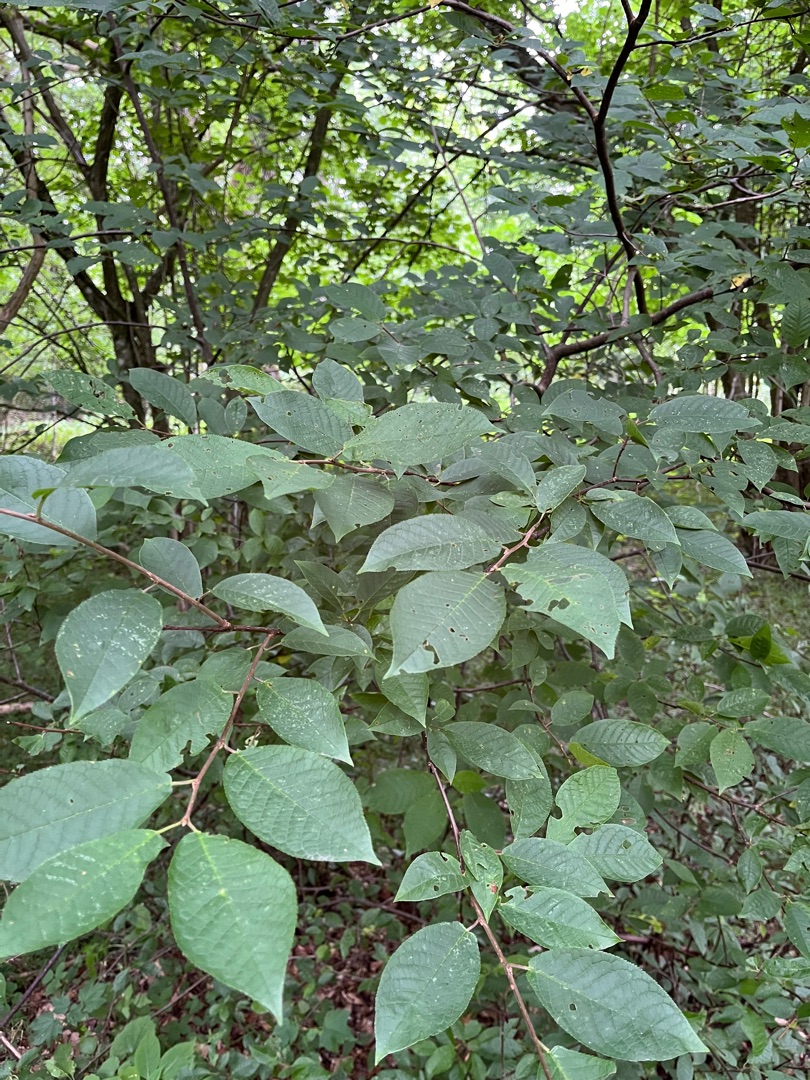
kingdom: Plantae
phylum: Tracheophyta
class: Magnoliopsida
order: Rosales
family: Rosaceae
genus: Prunus
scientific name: Prunus padus
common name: Almindelig hæg
